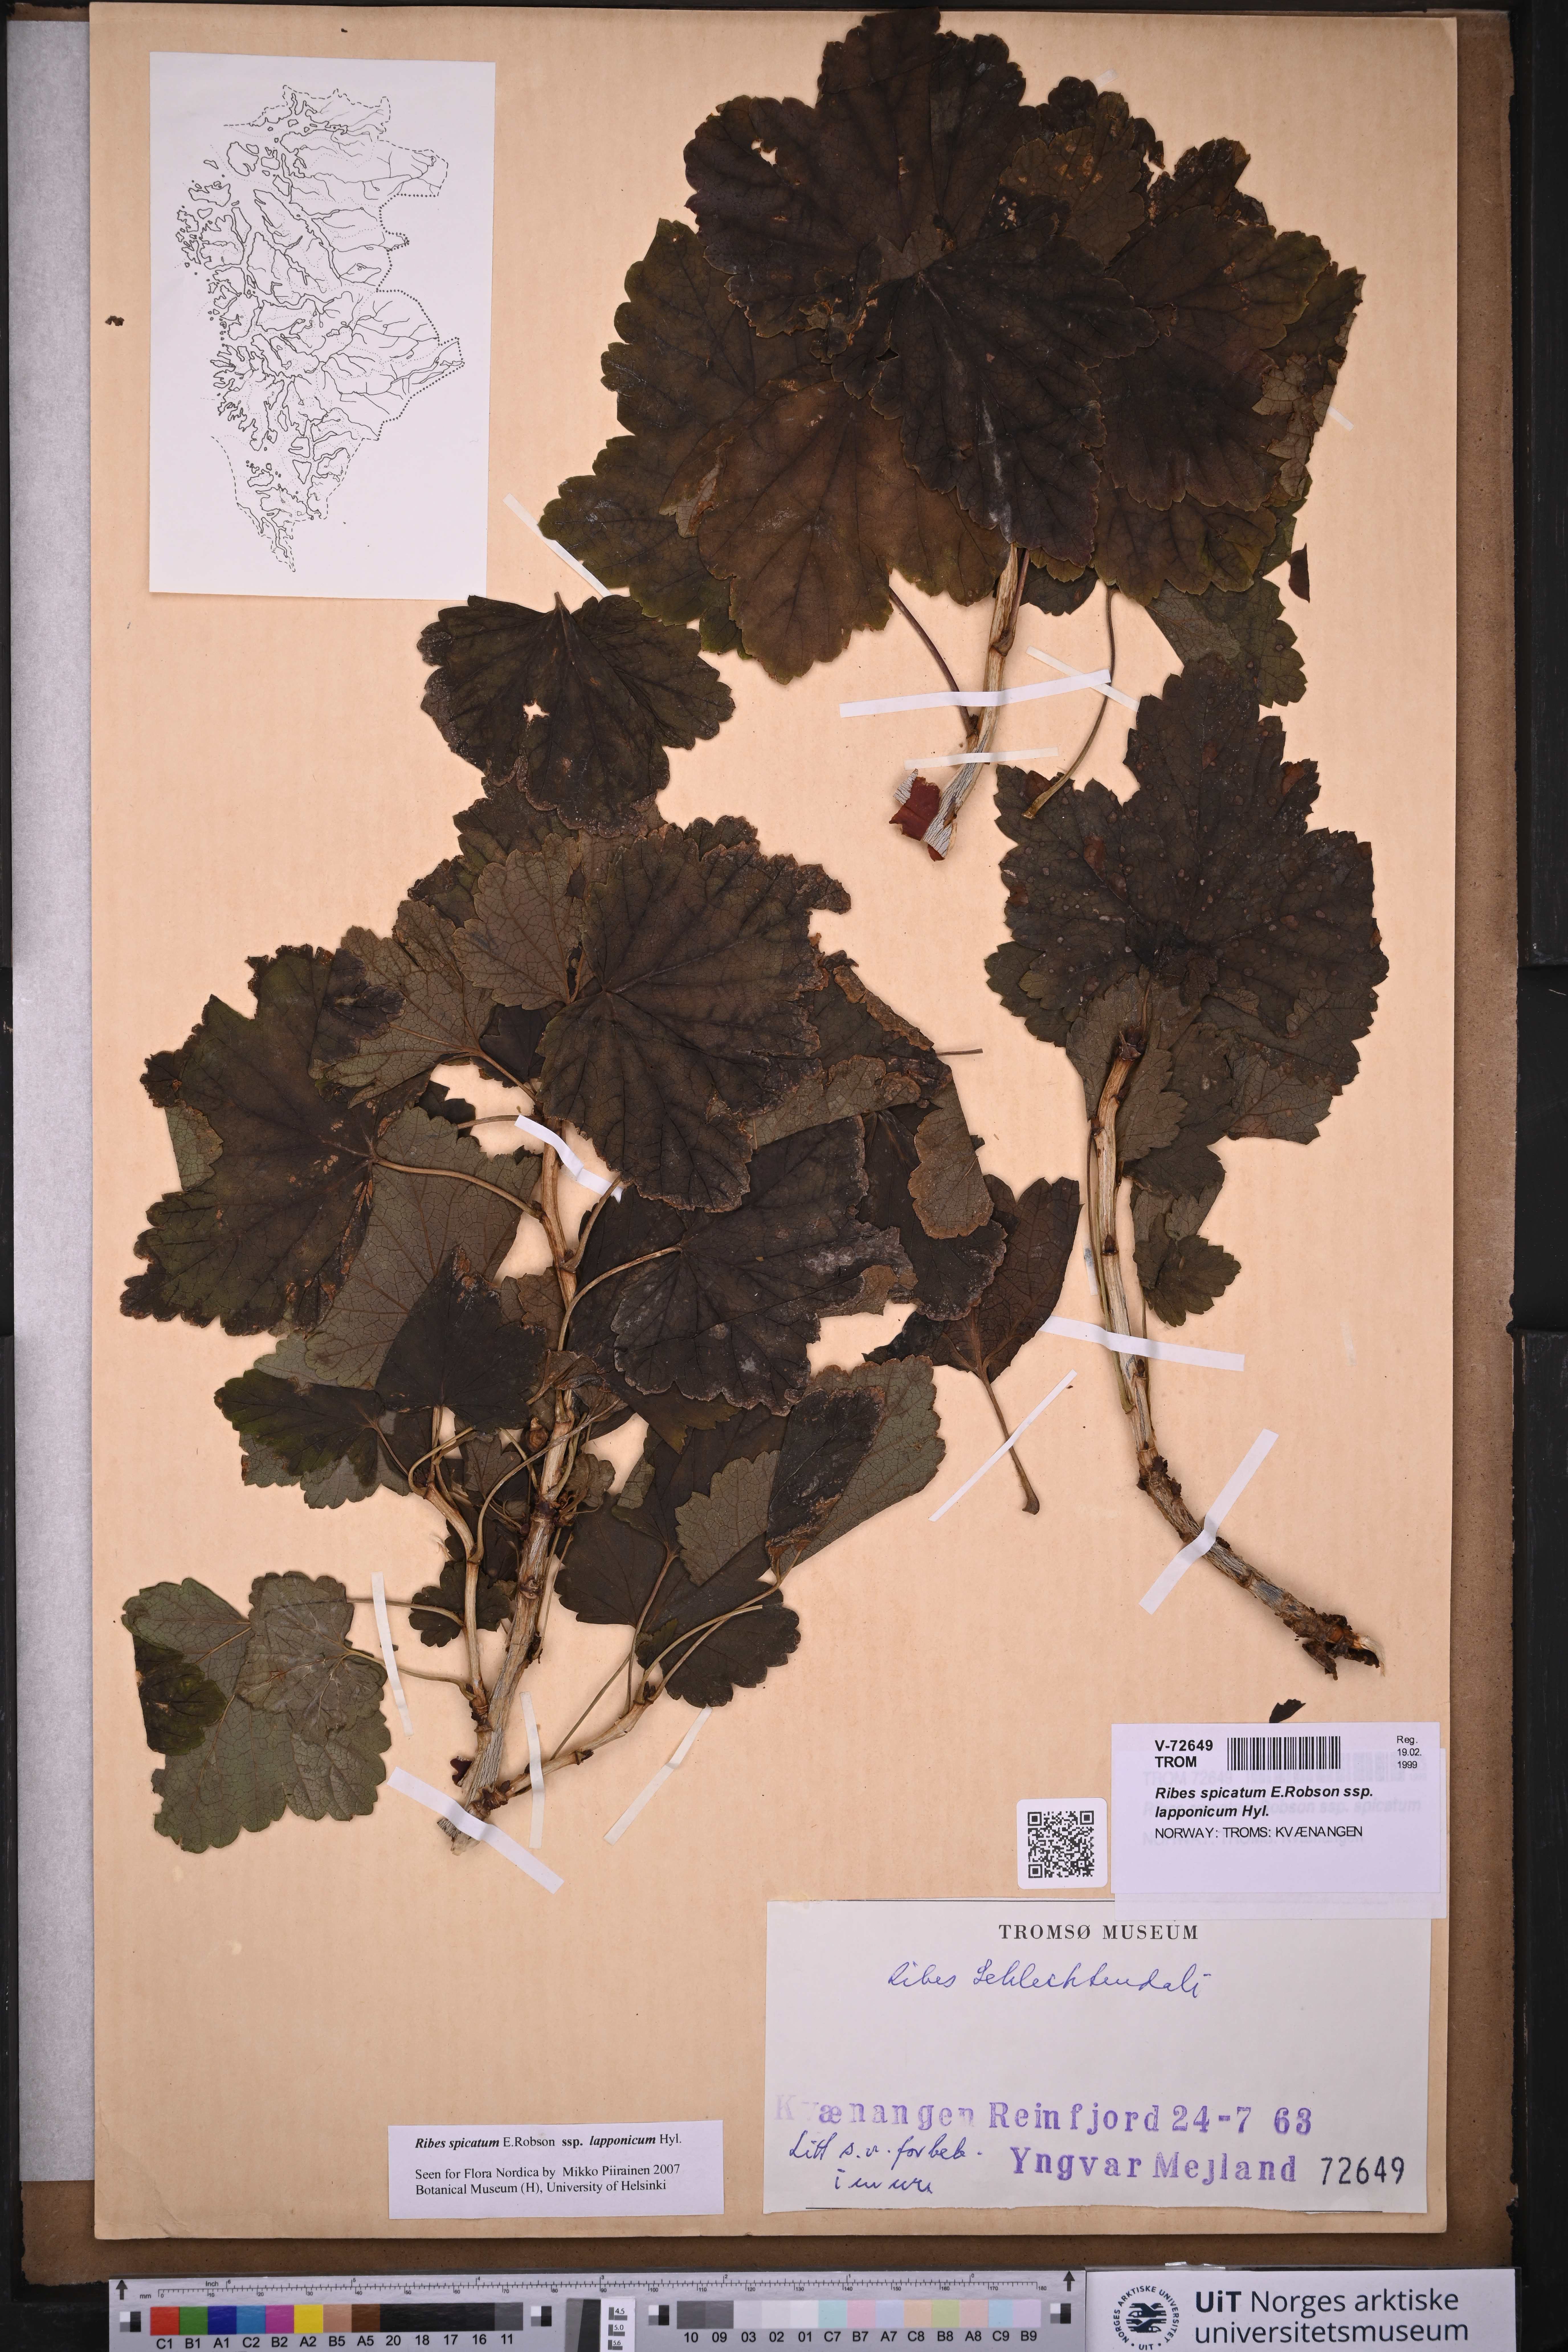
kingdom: Plantae
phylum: Tracheophyta
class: Magnoliopsida
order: Saxifragales
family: Grossulariaceae
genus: Ribes
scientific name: Ribes spicatum
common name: Downy currant
